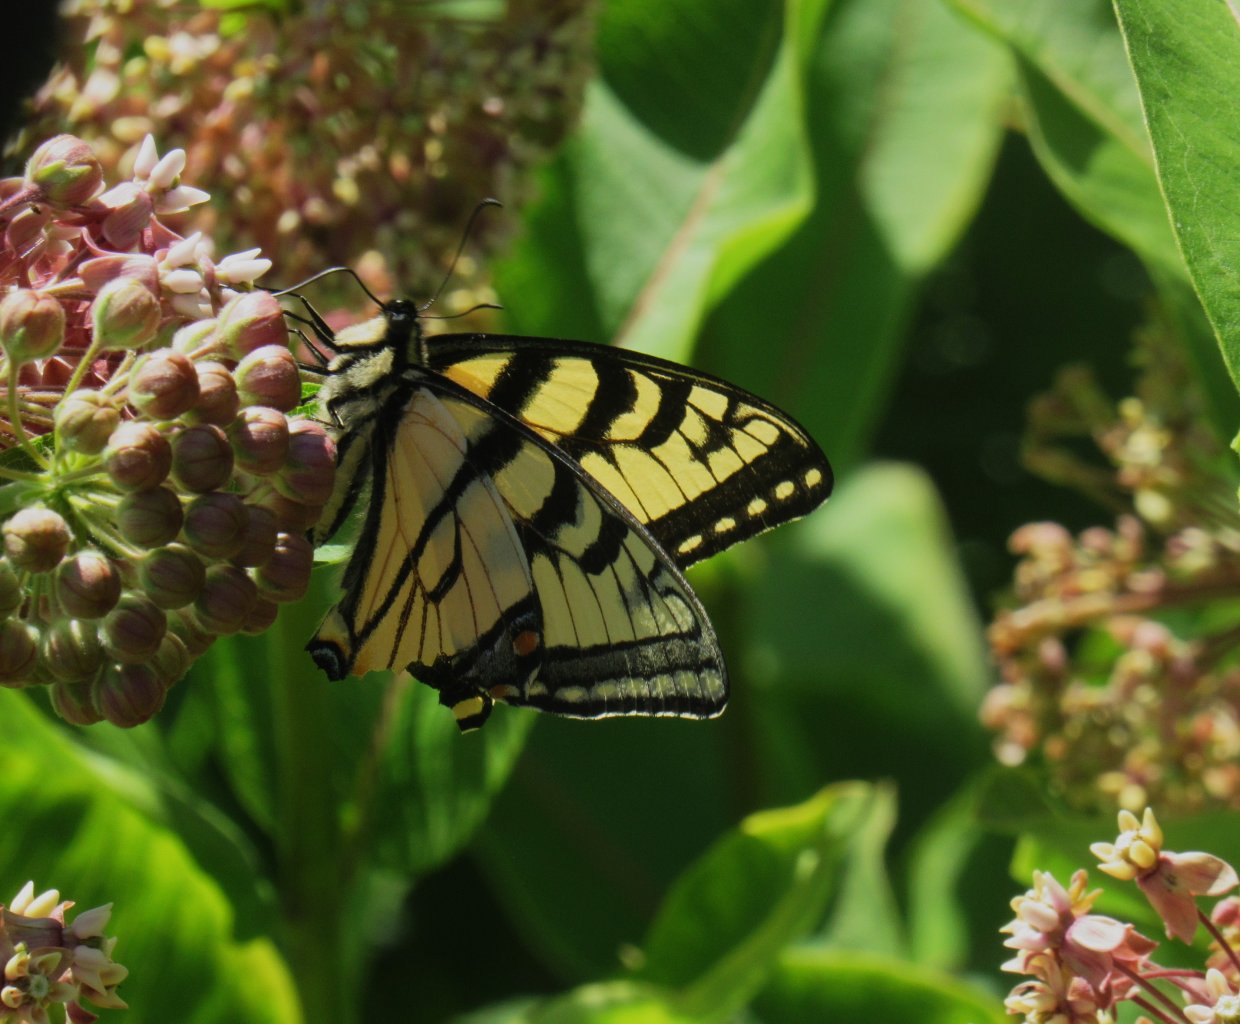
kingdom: Animalia
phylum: Arthropoda
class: Insecta
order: Lepidoptera
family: Papilionidae
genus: Pterourus
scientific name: Pterourus canadensis
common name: Canadian Tiger Swallowtail
